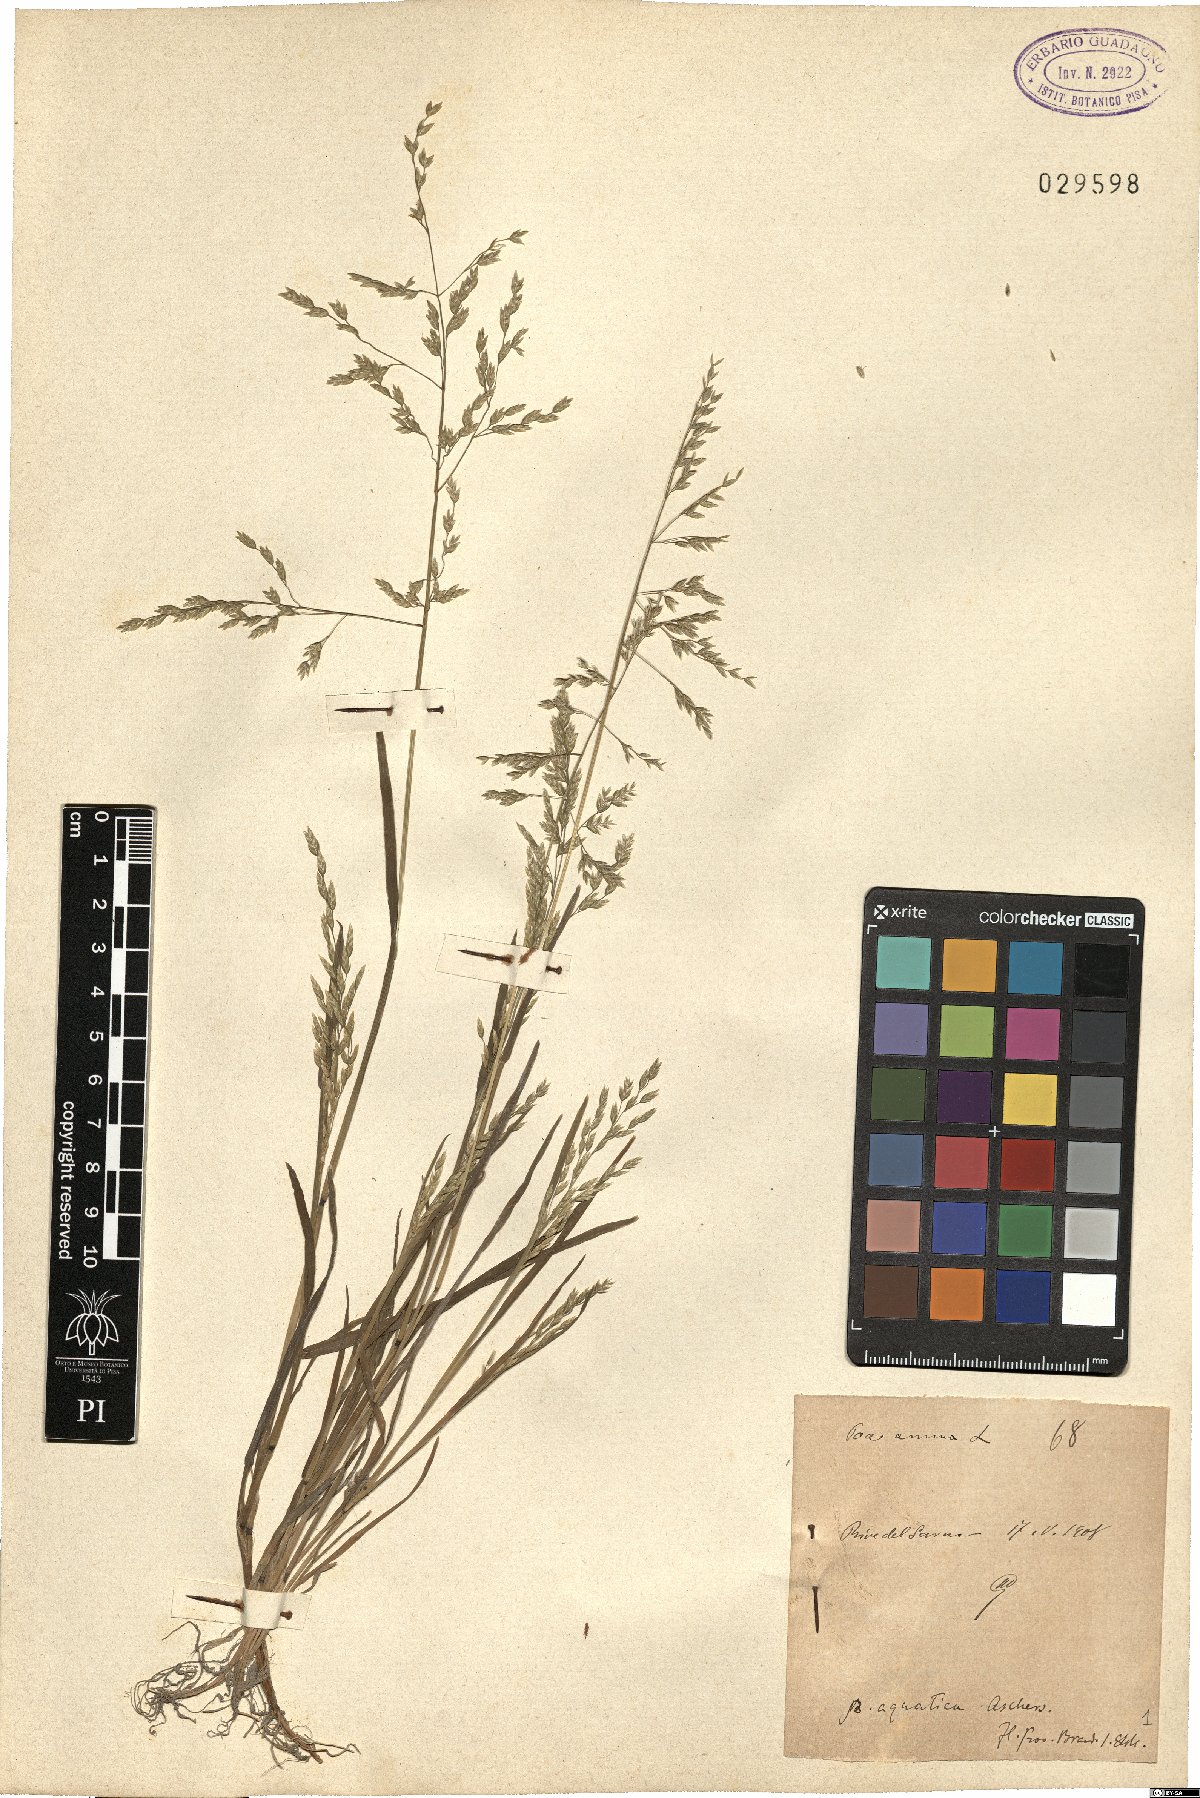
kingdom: Plantae
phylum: Tracheophyta
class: Liliopsida
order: Poales
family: Poaceae
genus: Poa
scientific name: Poa annua
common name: Annual bluegrass
